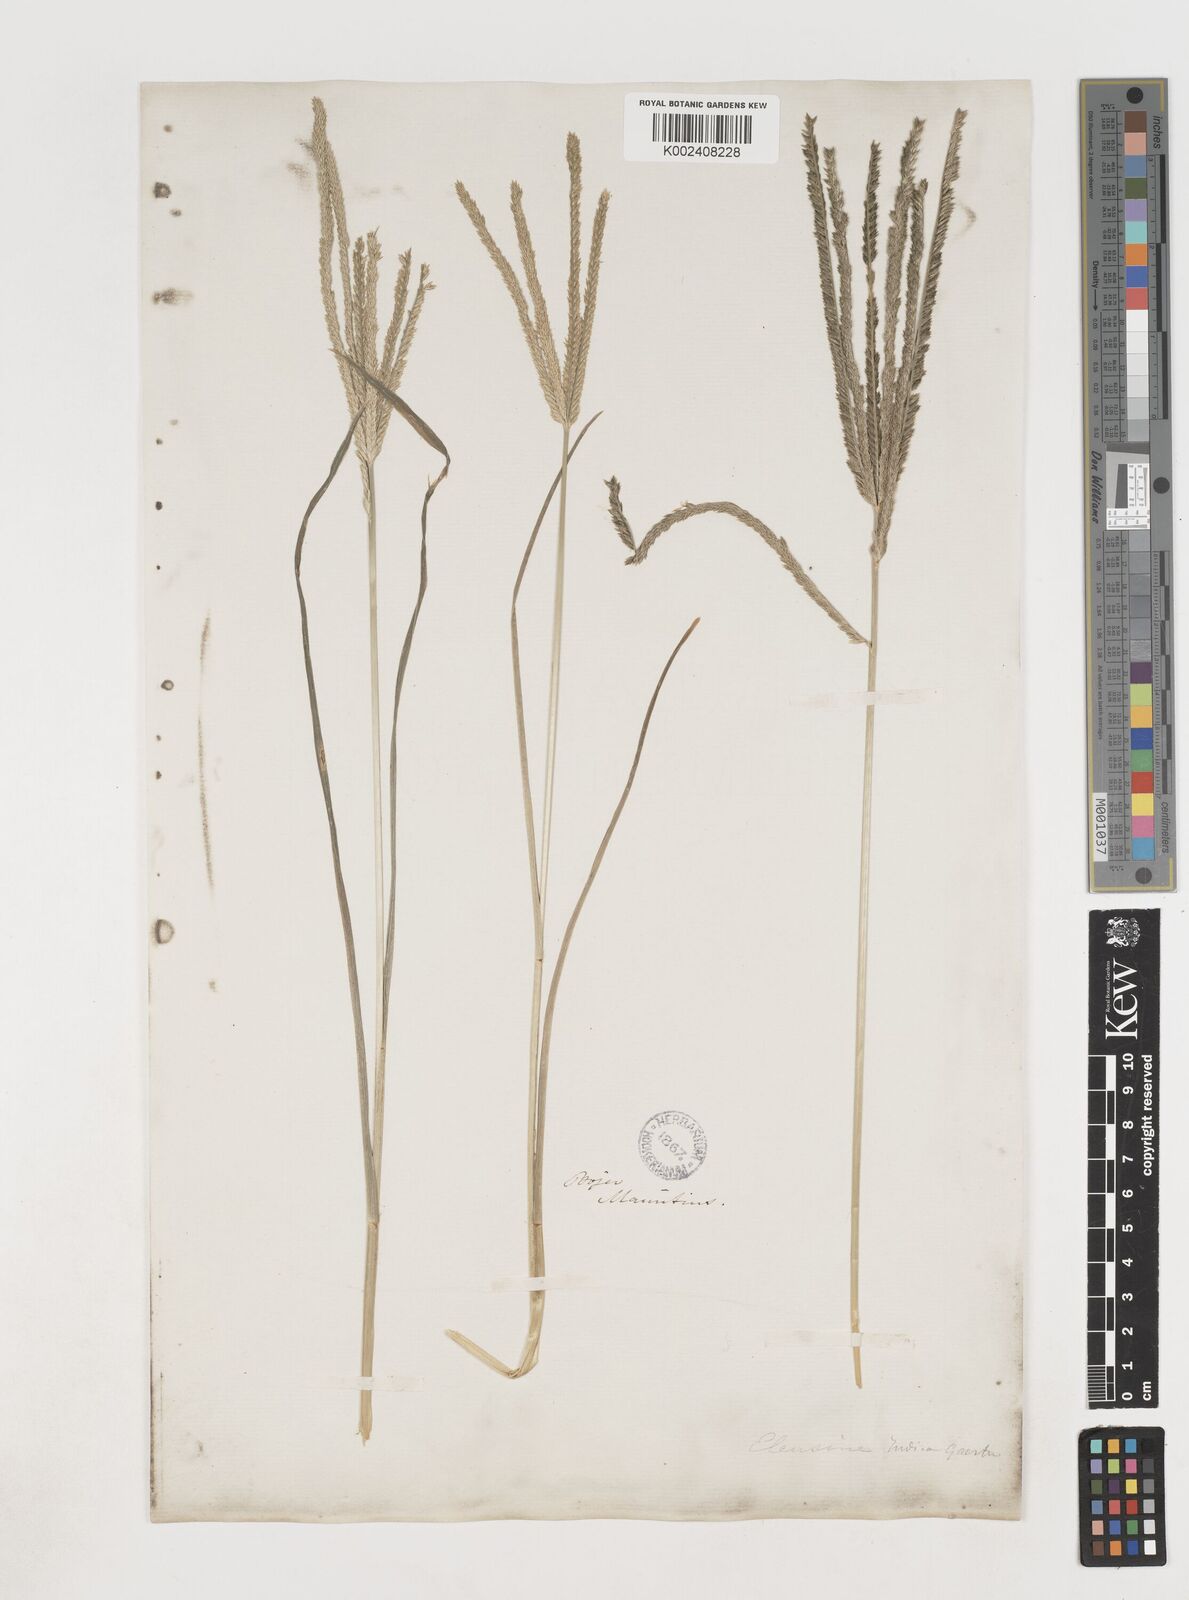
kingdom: Plantae
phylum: Tracheophyta
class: Liliopsida
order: Poales
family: Poaceae
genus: Eleusine
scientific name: Eleusine africana
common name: Wild african finger millet
